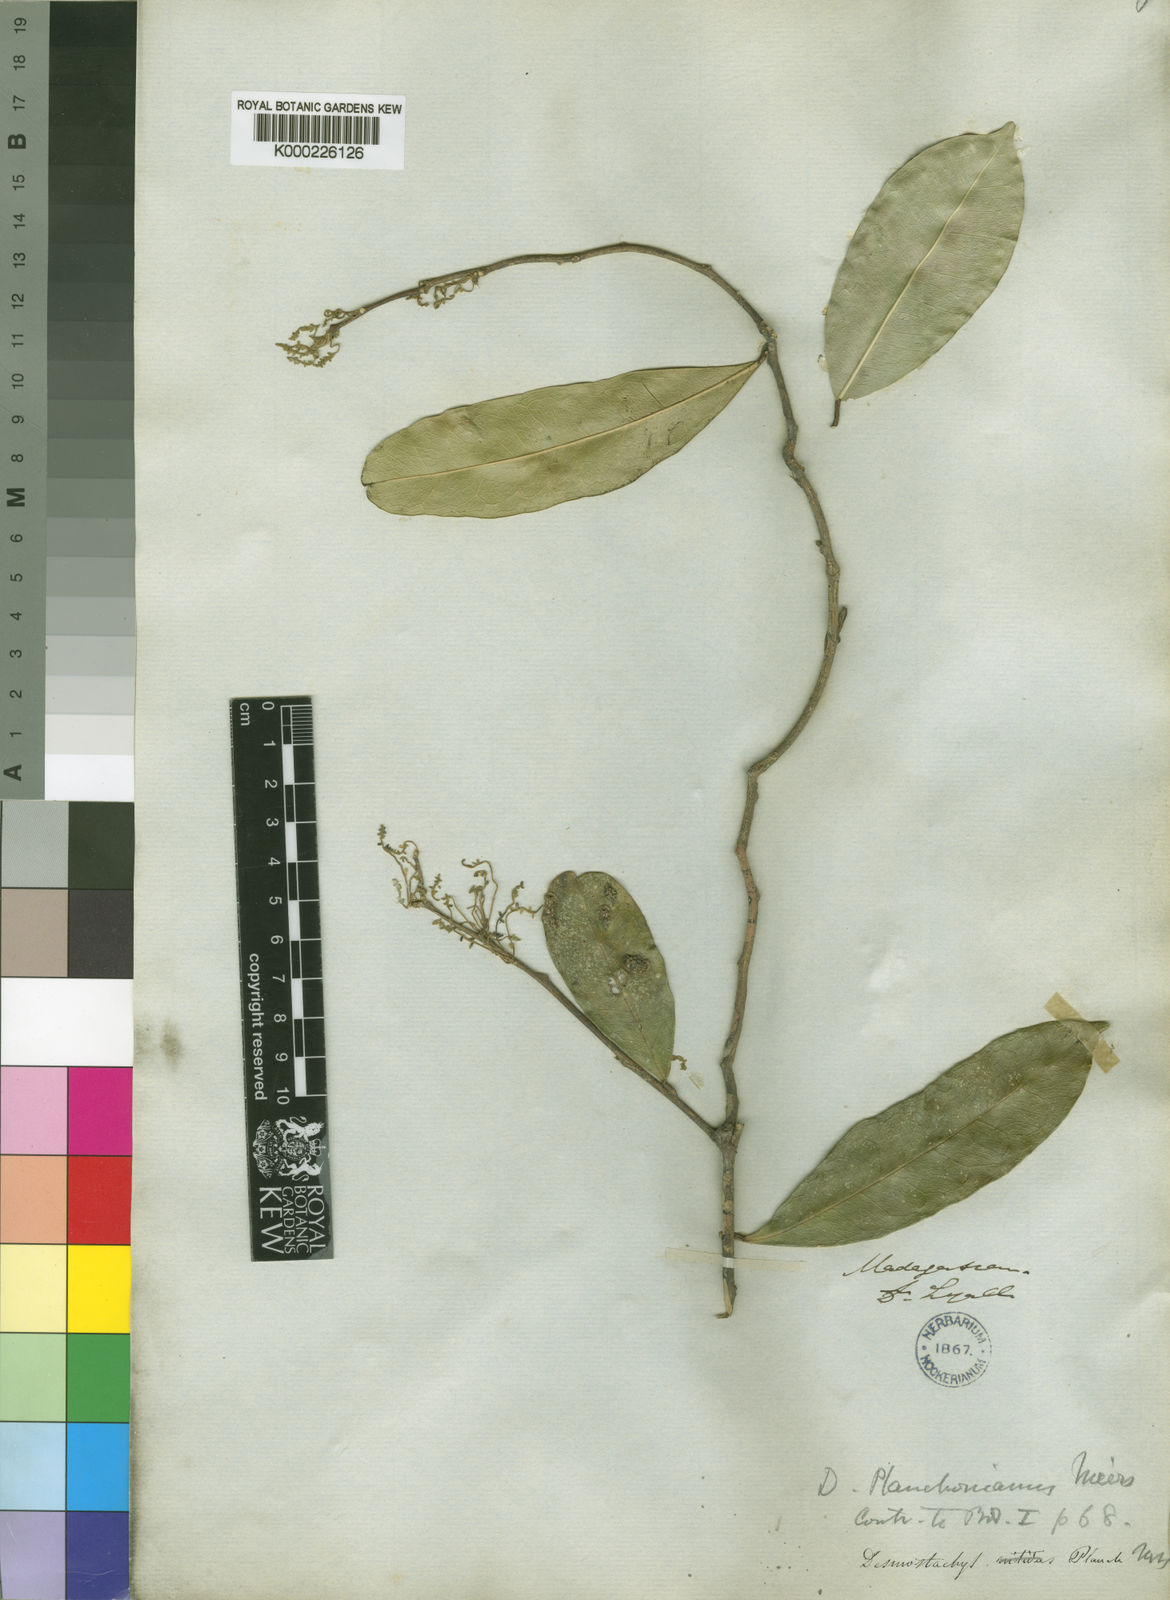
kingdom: Plantae
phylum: Tracheophyta
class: Magnoliopsida
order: Icacinales
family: Icacinaceae
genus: Desmostachys
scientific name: Desmostachys planchonianus
